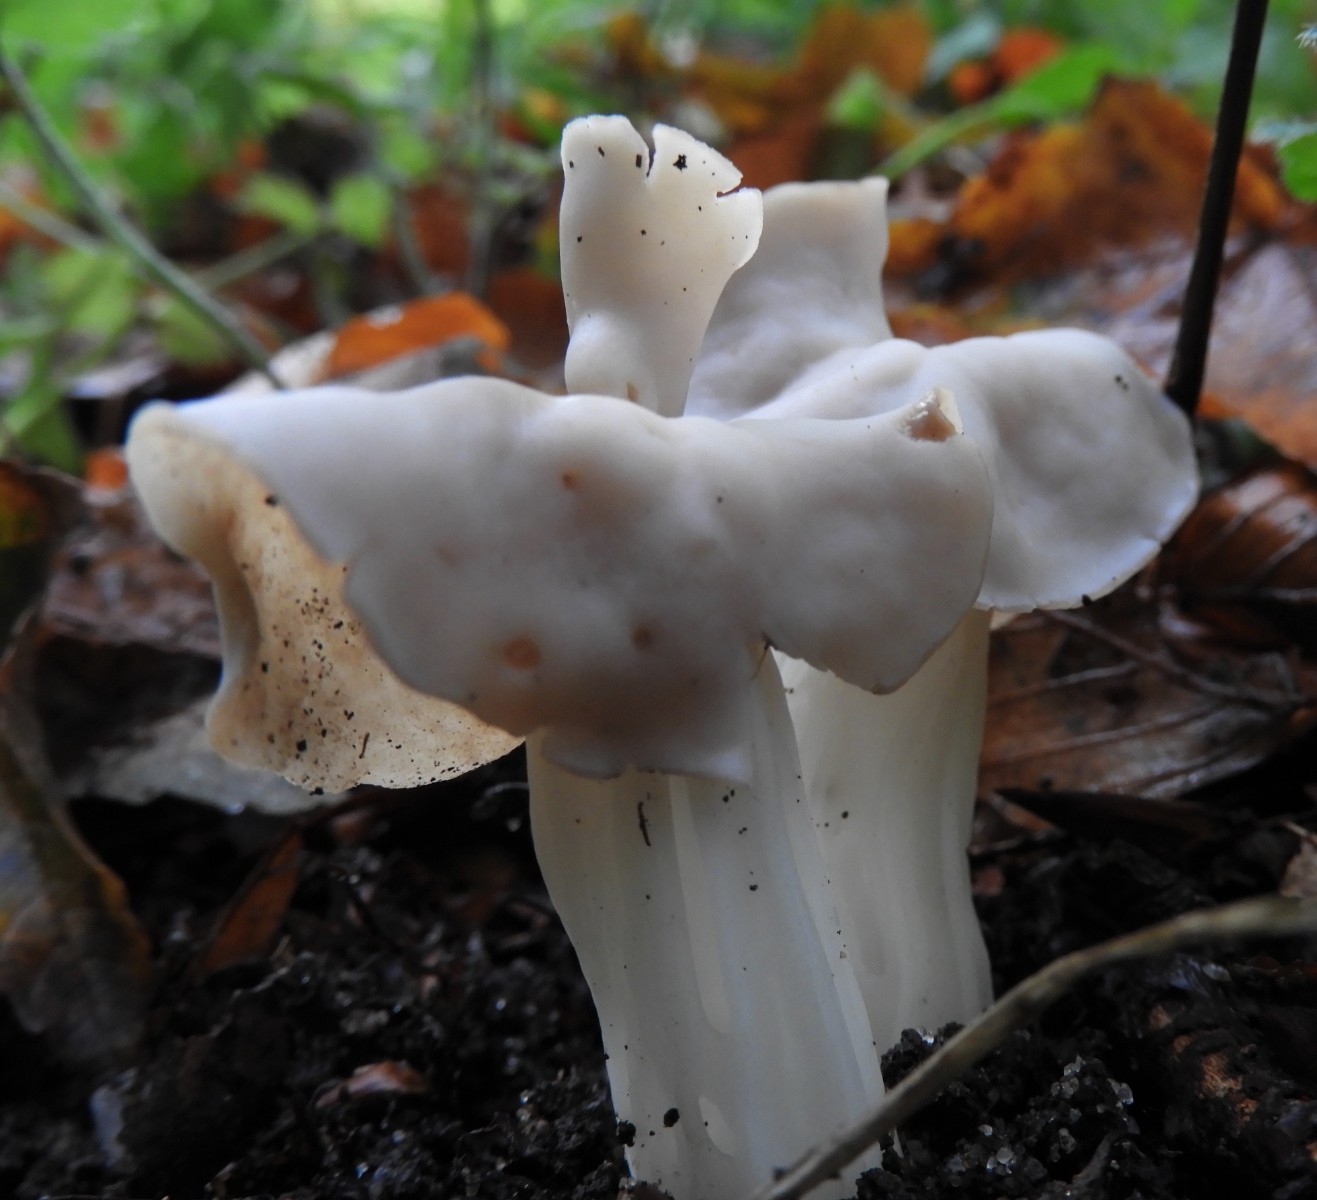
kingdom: Fungi
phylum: Ascomycota
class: Pezizomycetes
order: Pezizales
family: Helvellaceae
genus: Helvella
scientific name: Helvella crispa
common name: kruset foldhat
